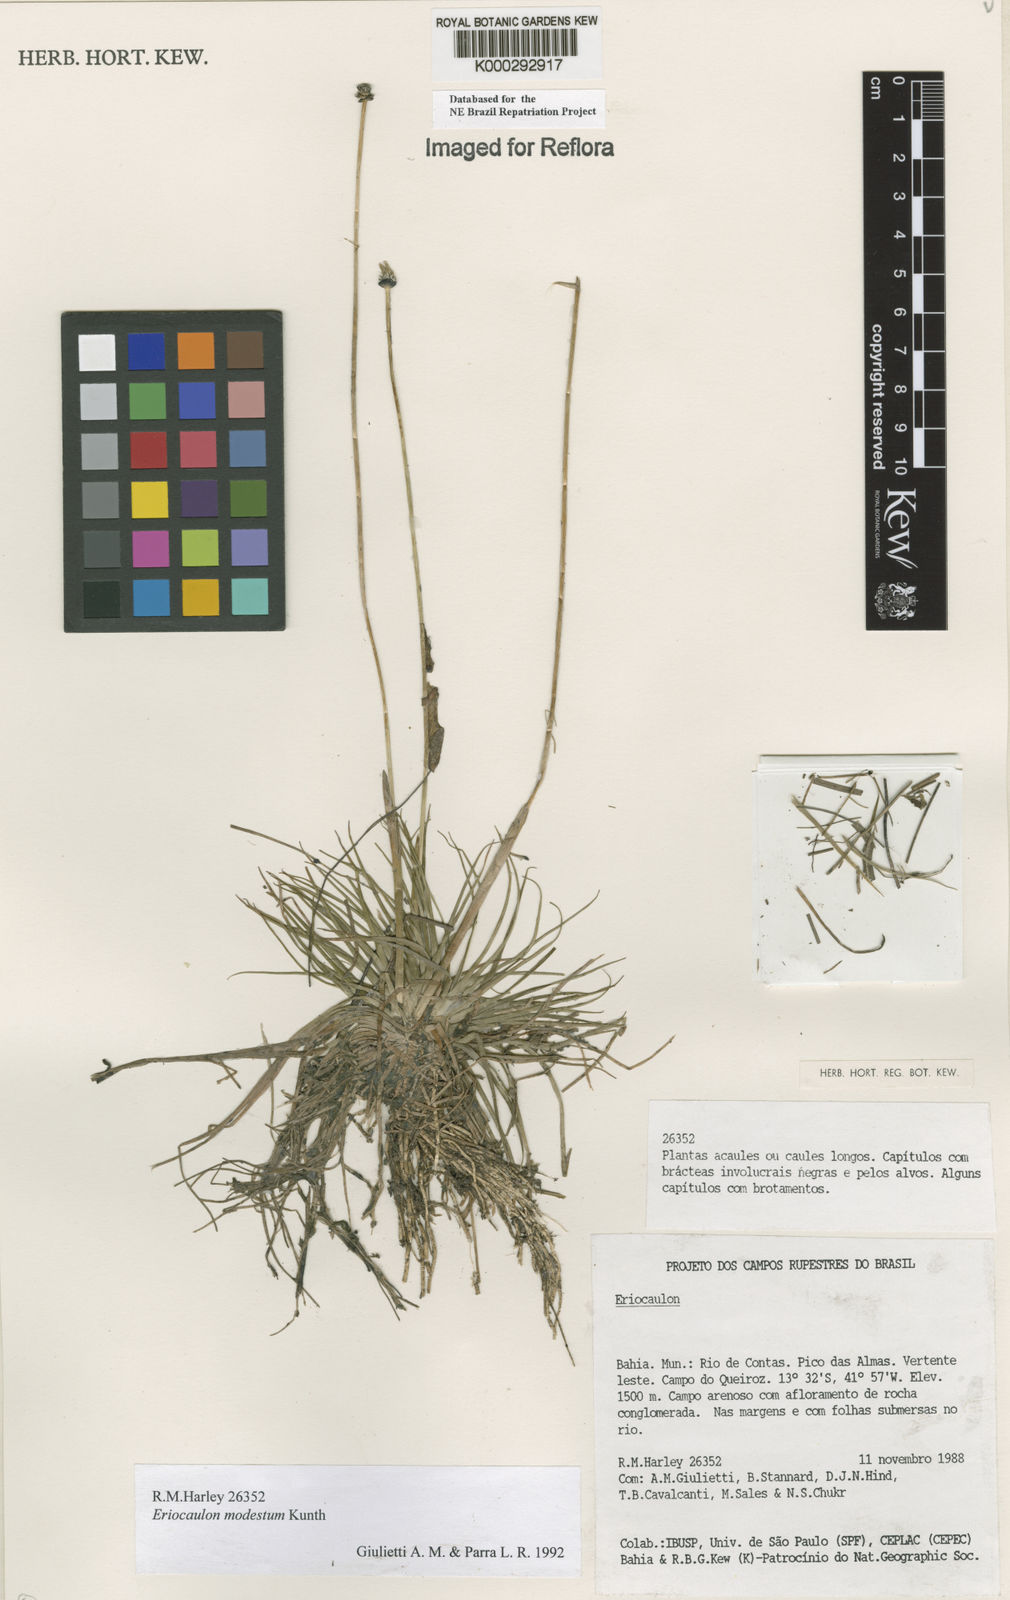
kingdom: Plantae
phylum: Tracheophyta
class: Liliopsida
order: Poales
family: Eriocaulaceae
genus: Eriocaulon
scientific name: Eriocaulon modestum
